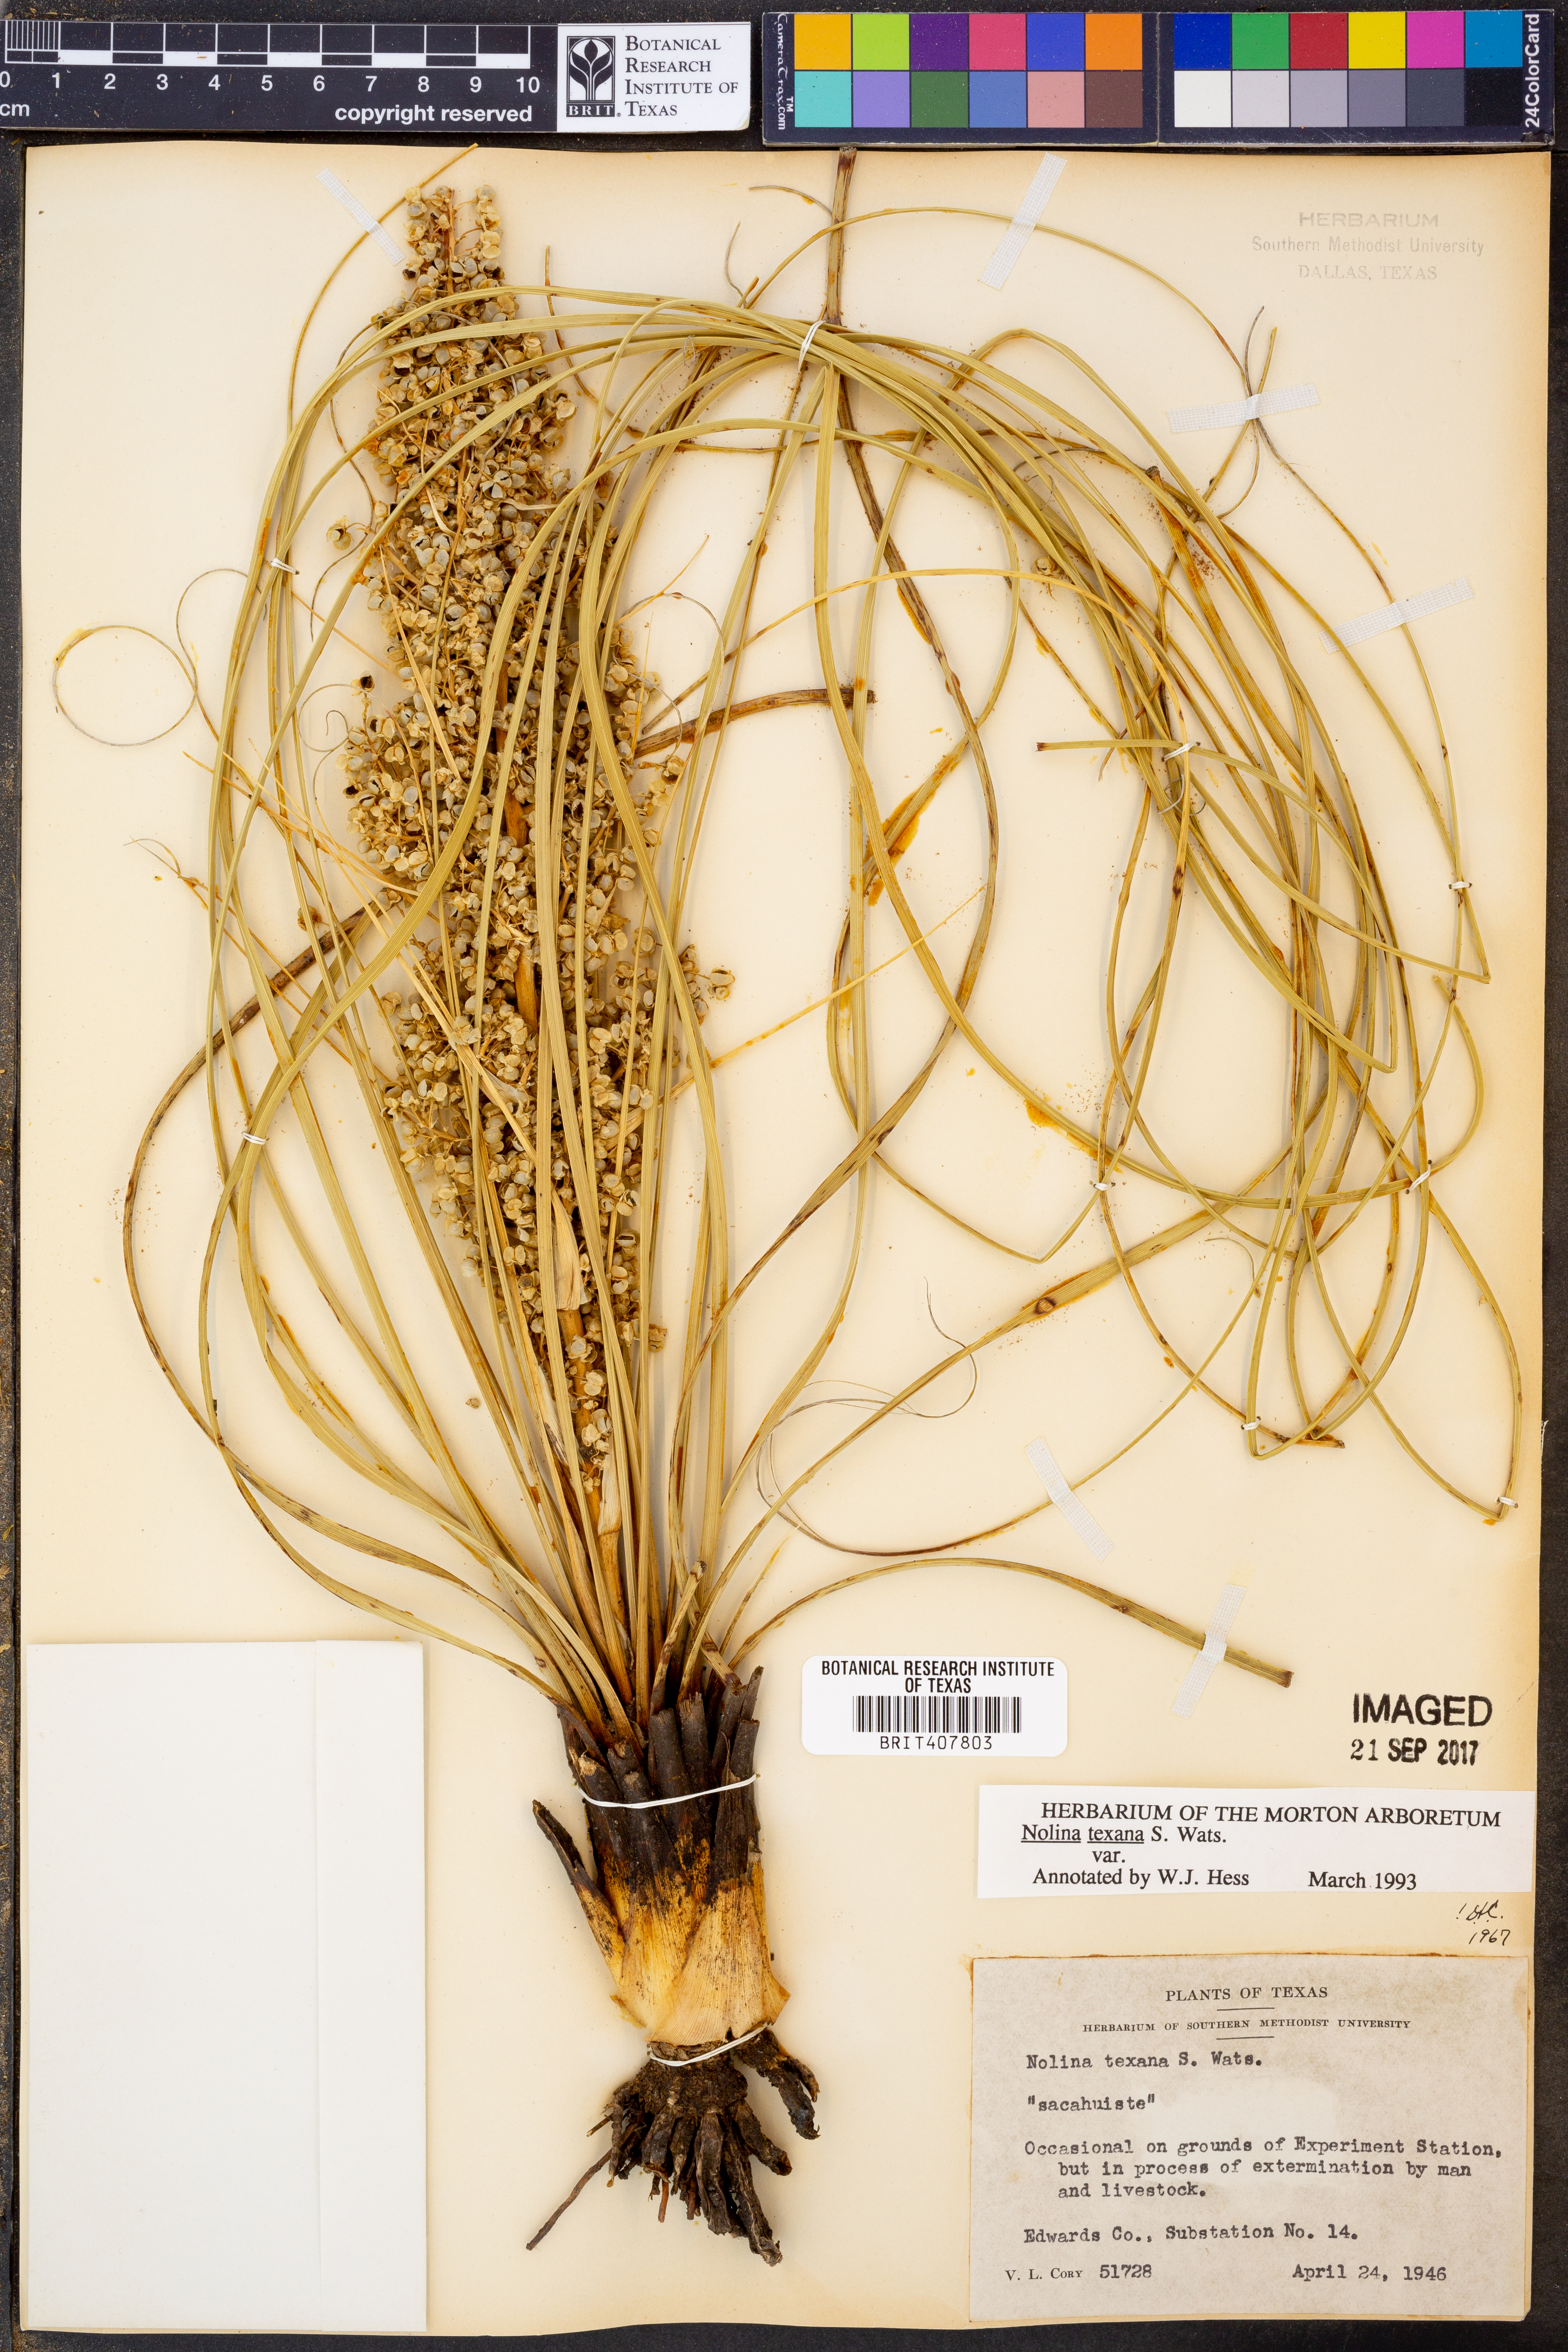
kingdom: Plantae
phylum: Tracheophyta
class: Liliopsida
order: Asparagales
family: Asparagaceae
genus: Nolina
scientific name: Nolina texana
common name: Texas sacahuiste
